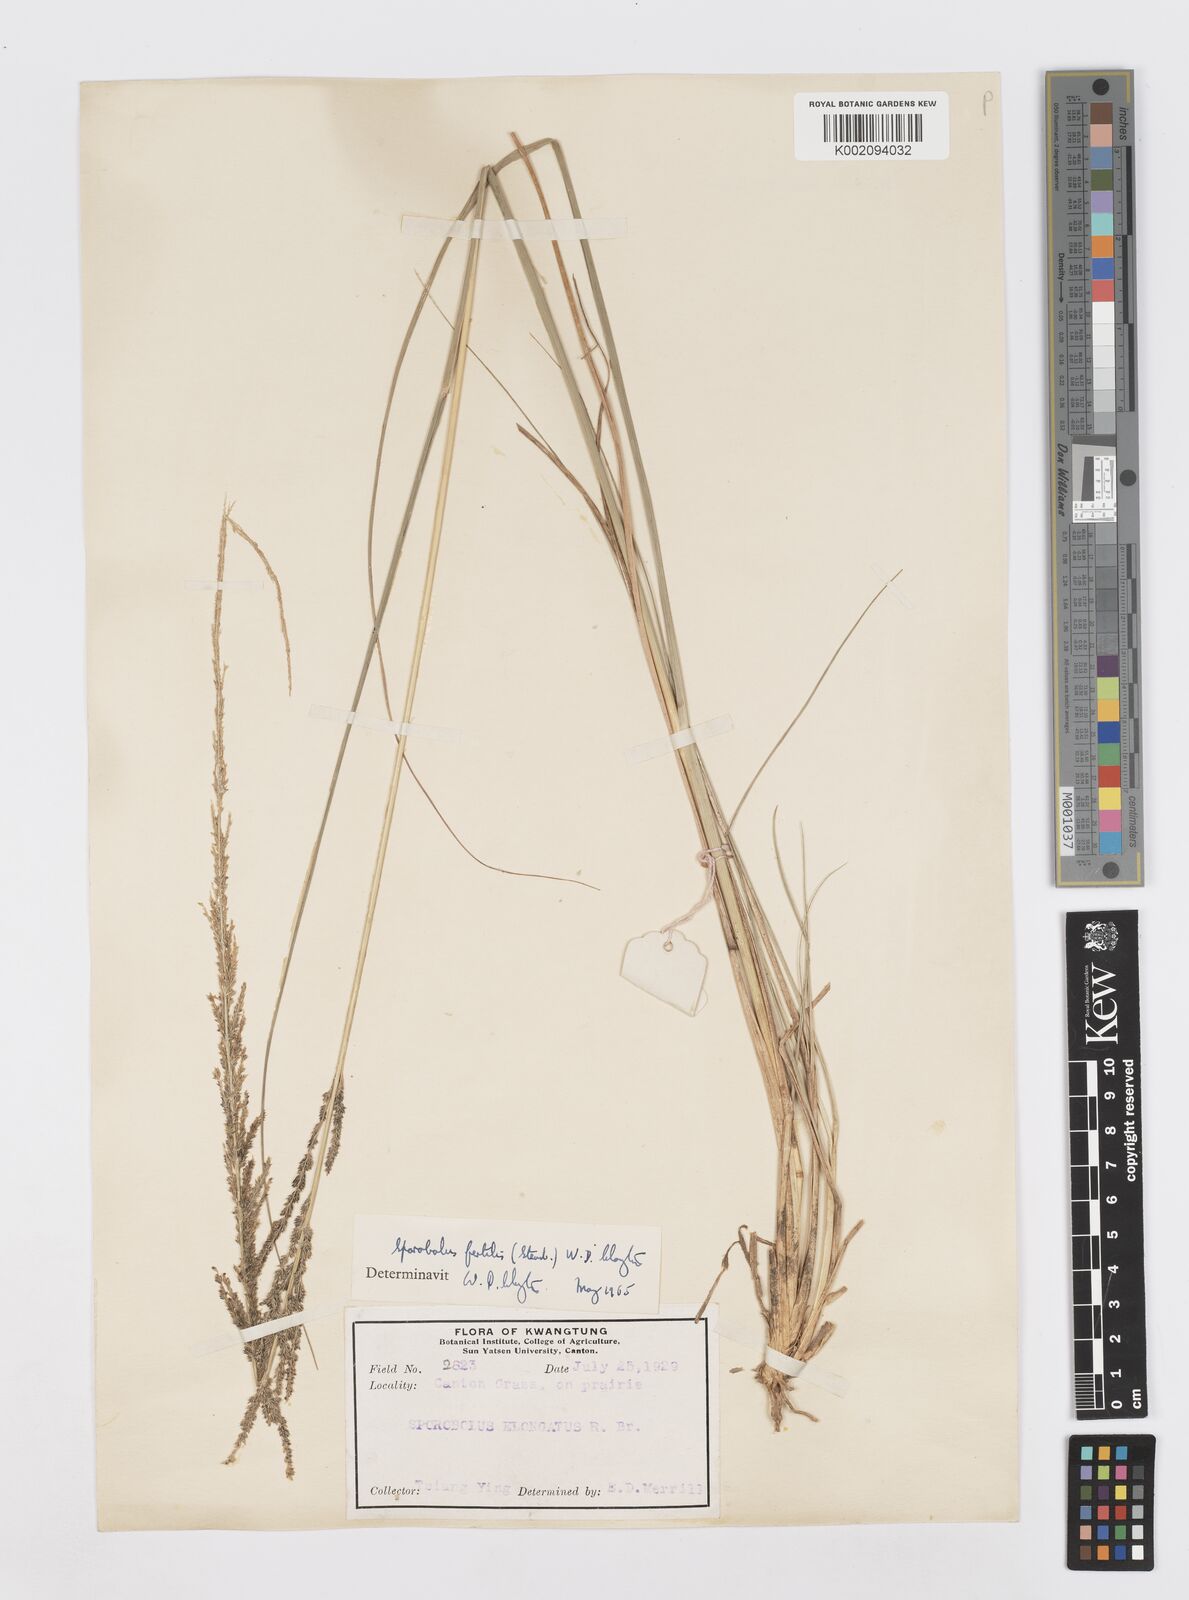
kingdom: Plantae
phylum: Tracheophyta
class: Liliopsida
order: Poales
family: Poaceae
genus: Sporobolus
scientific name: Sporobolus fertilis
